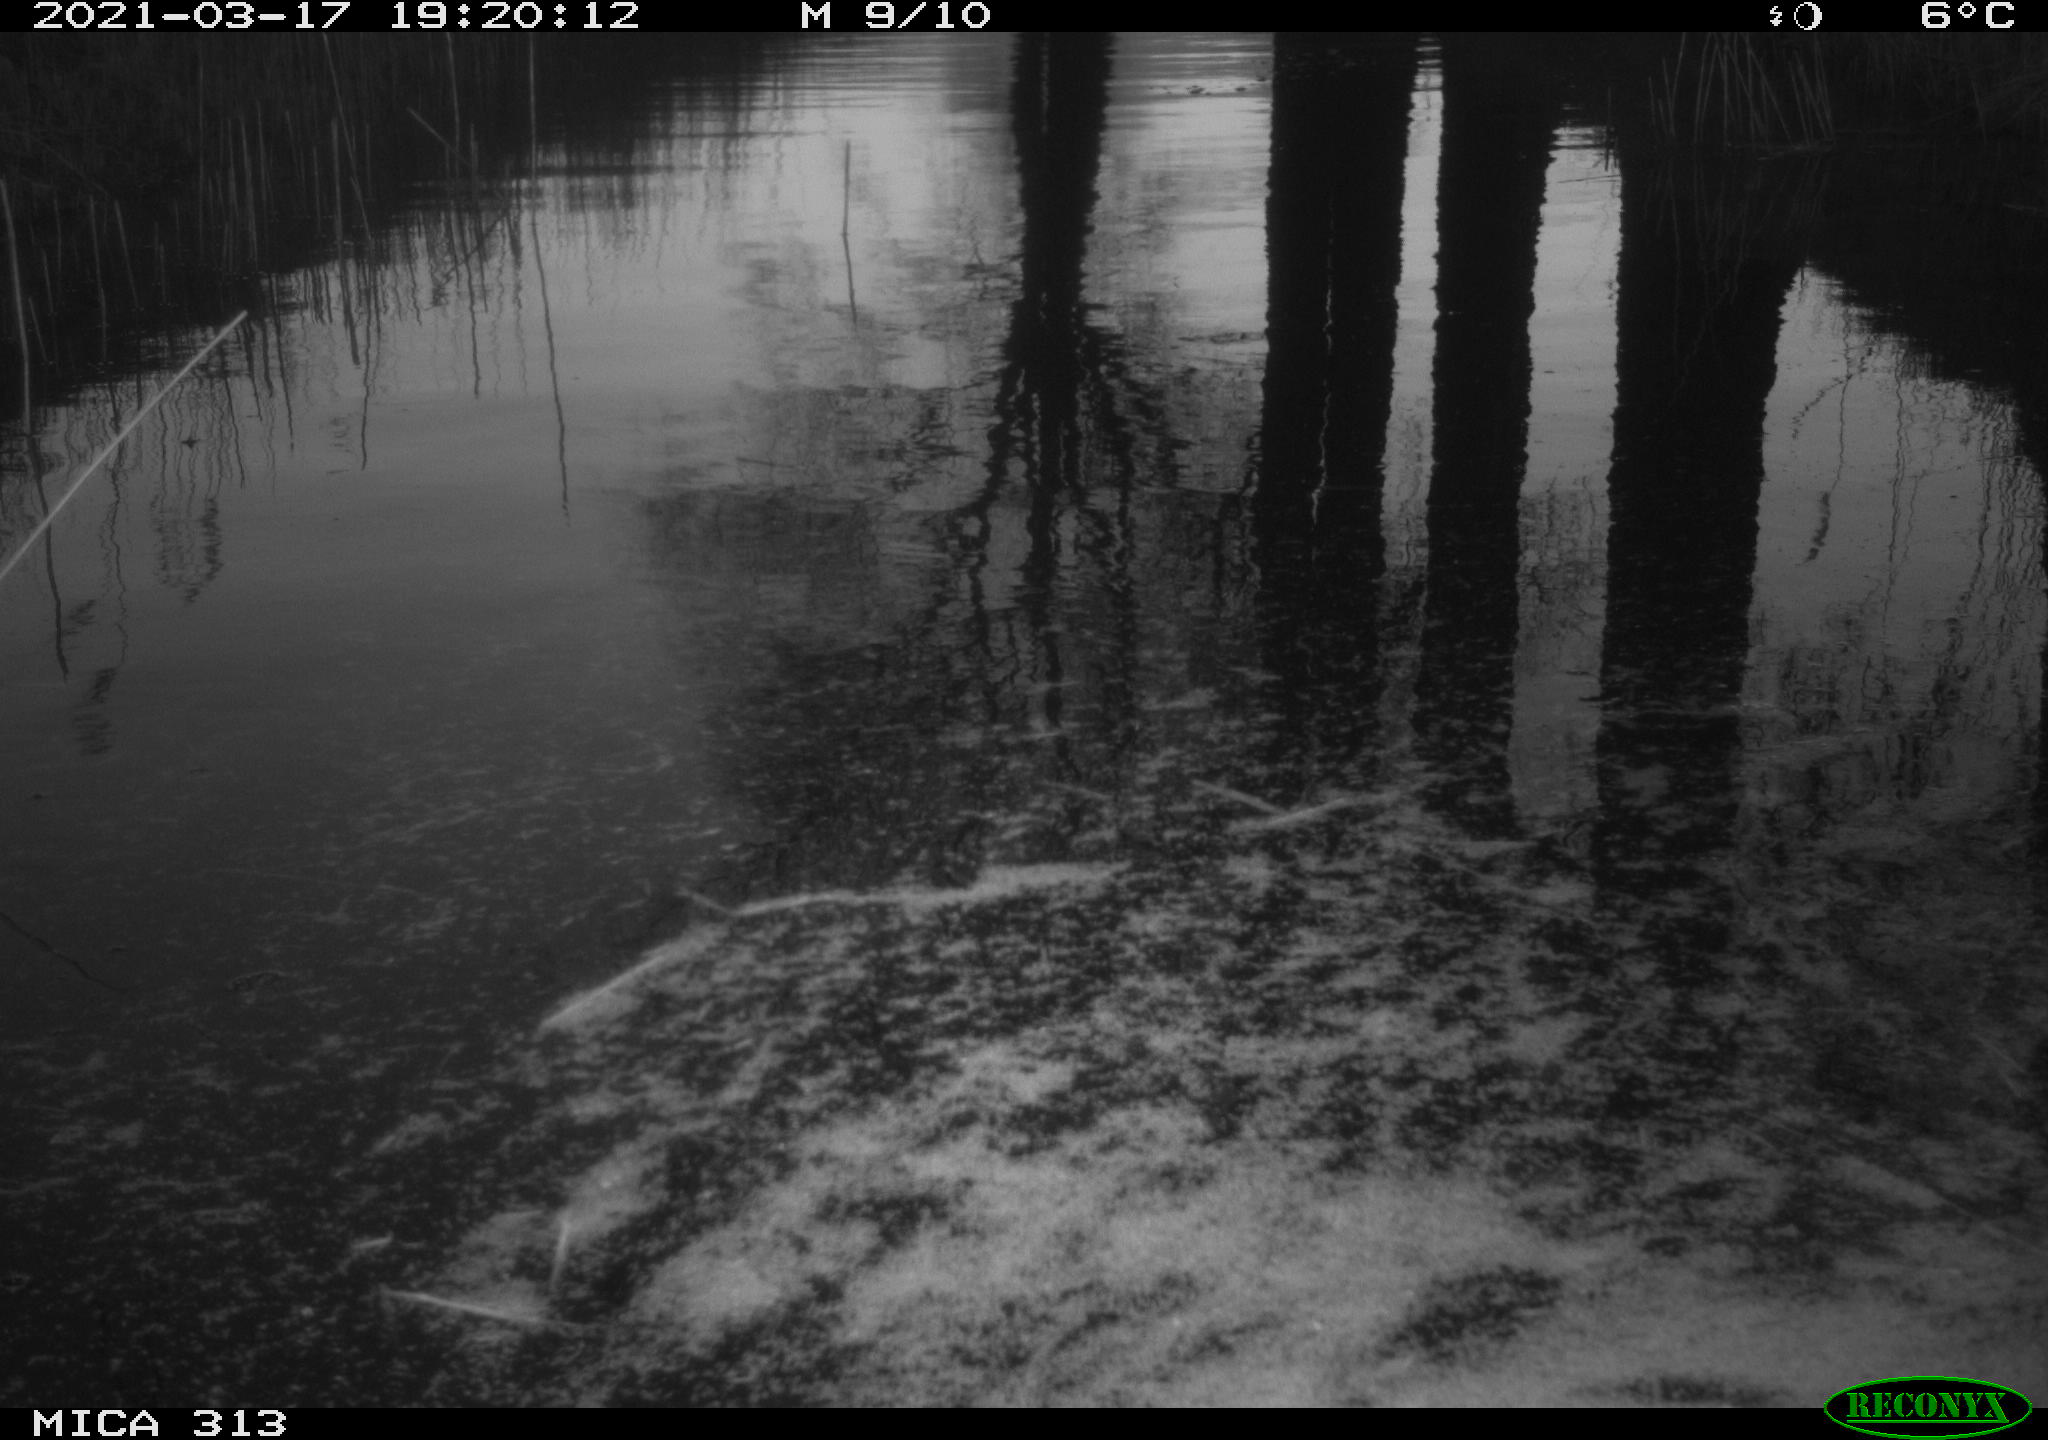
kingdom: Animalia
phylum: Chordata
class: Aves
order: Gruiformes
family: Rallidae
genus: Gallinula
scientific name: Gallinula chloropus
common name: Common moorhen
